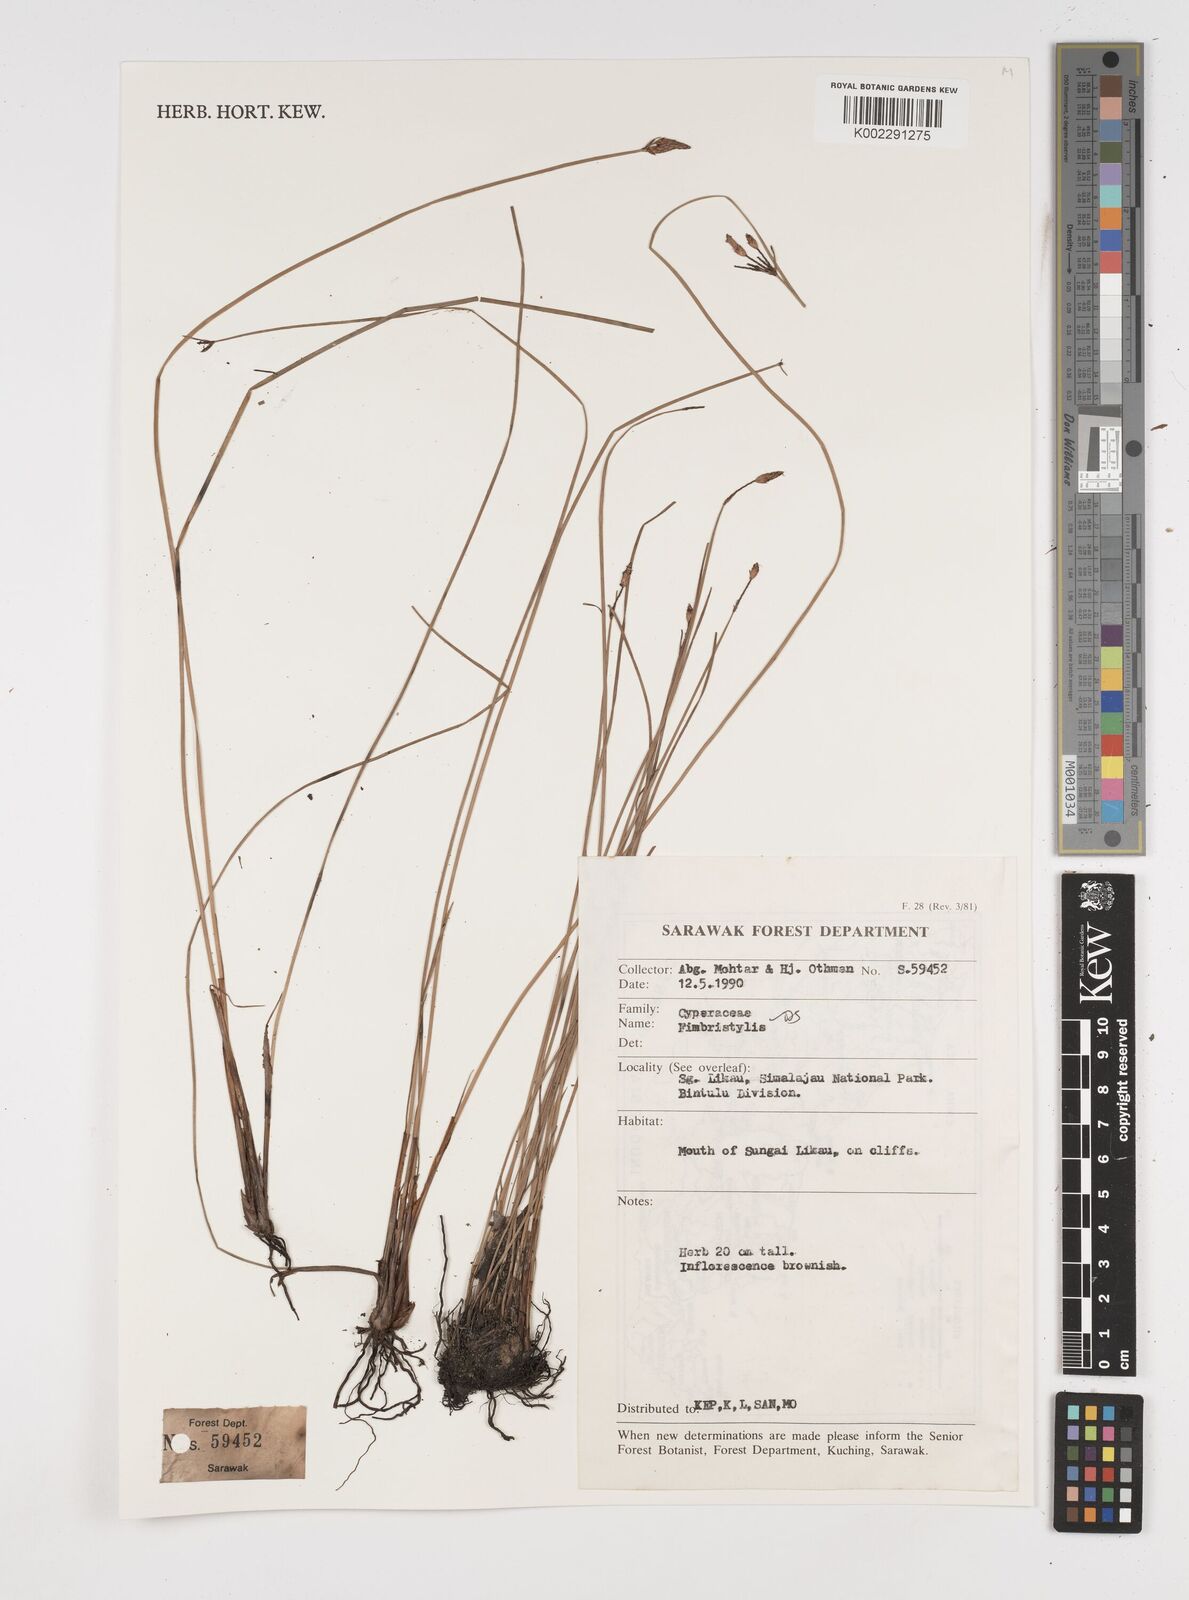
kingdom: Plantae
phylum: Tracheophyta
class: Liliopsida
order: Poales
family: Cyperaceae
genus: Fimbristylis
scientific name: Fimbristylis
